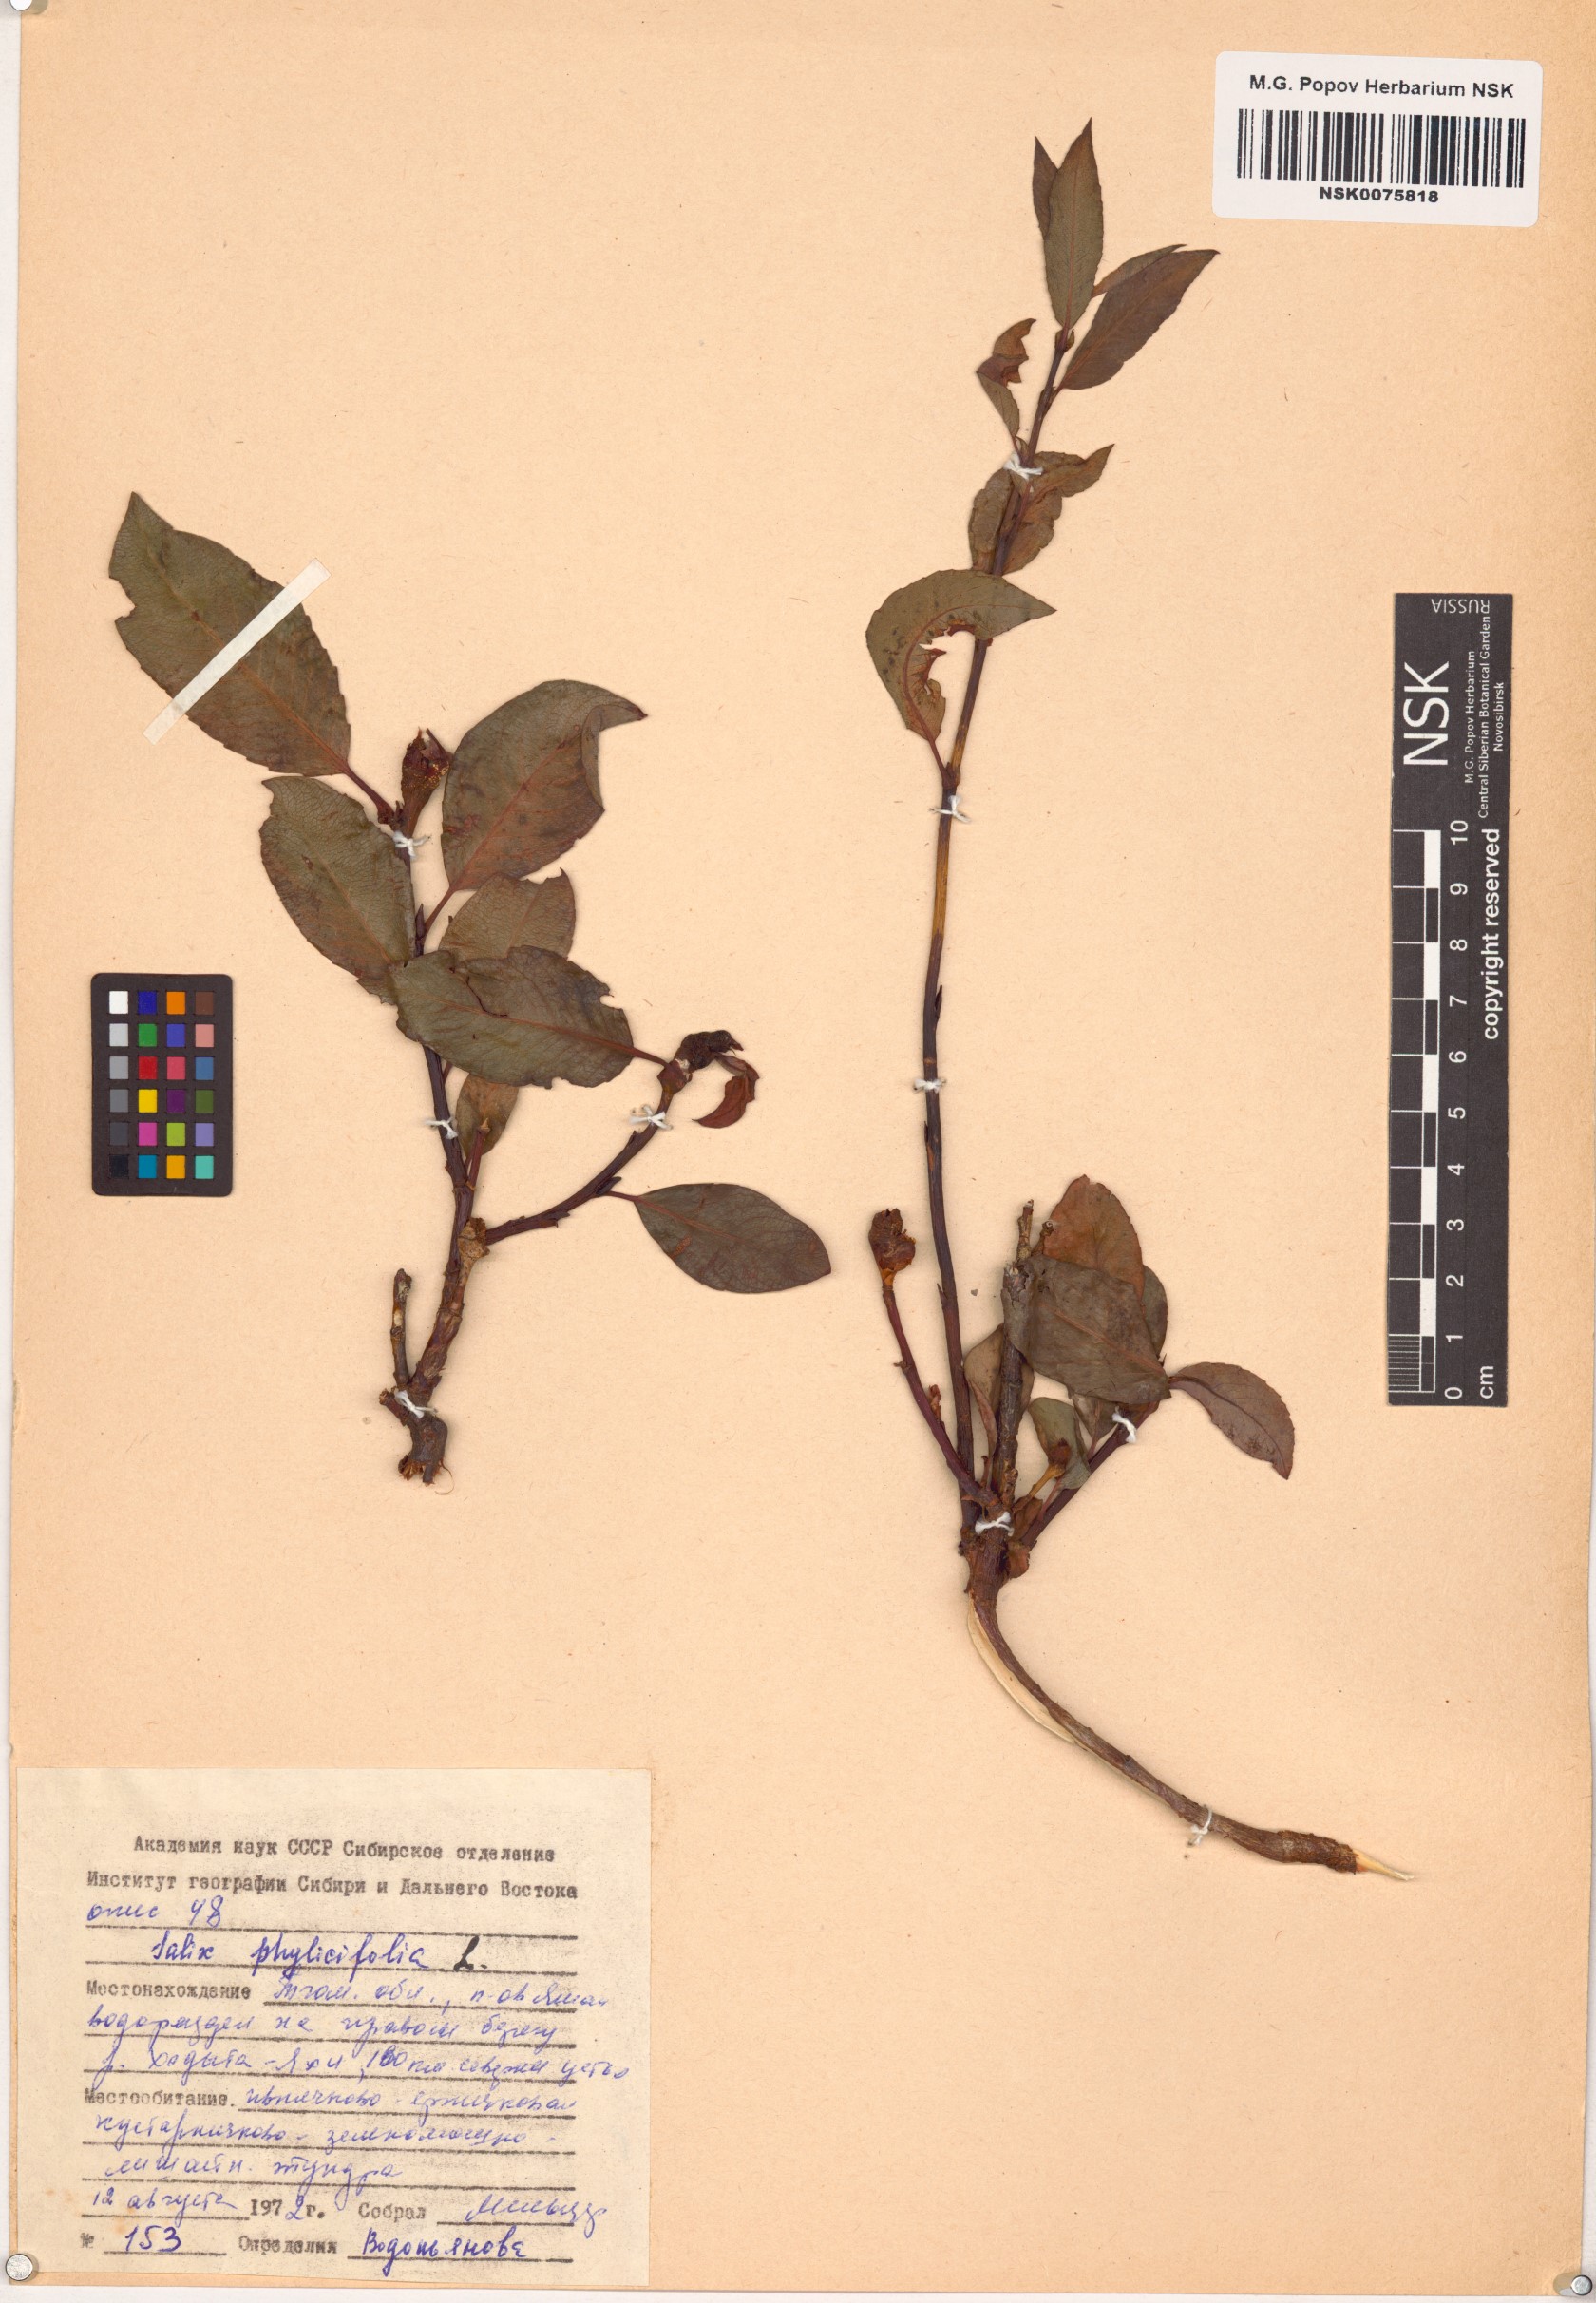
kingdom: Plantae
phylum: Tracheophyta
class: Magnoliopsida
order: Malpighiales
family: Salicaceae
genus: Salix
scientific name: Salix phylicifolia
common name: Tea-leaved willow
